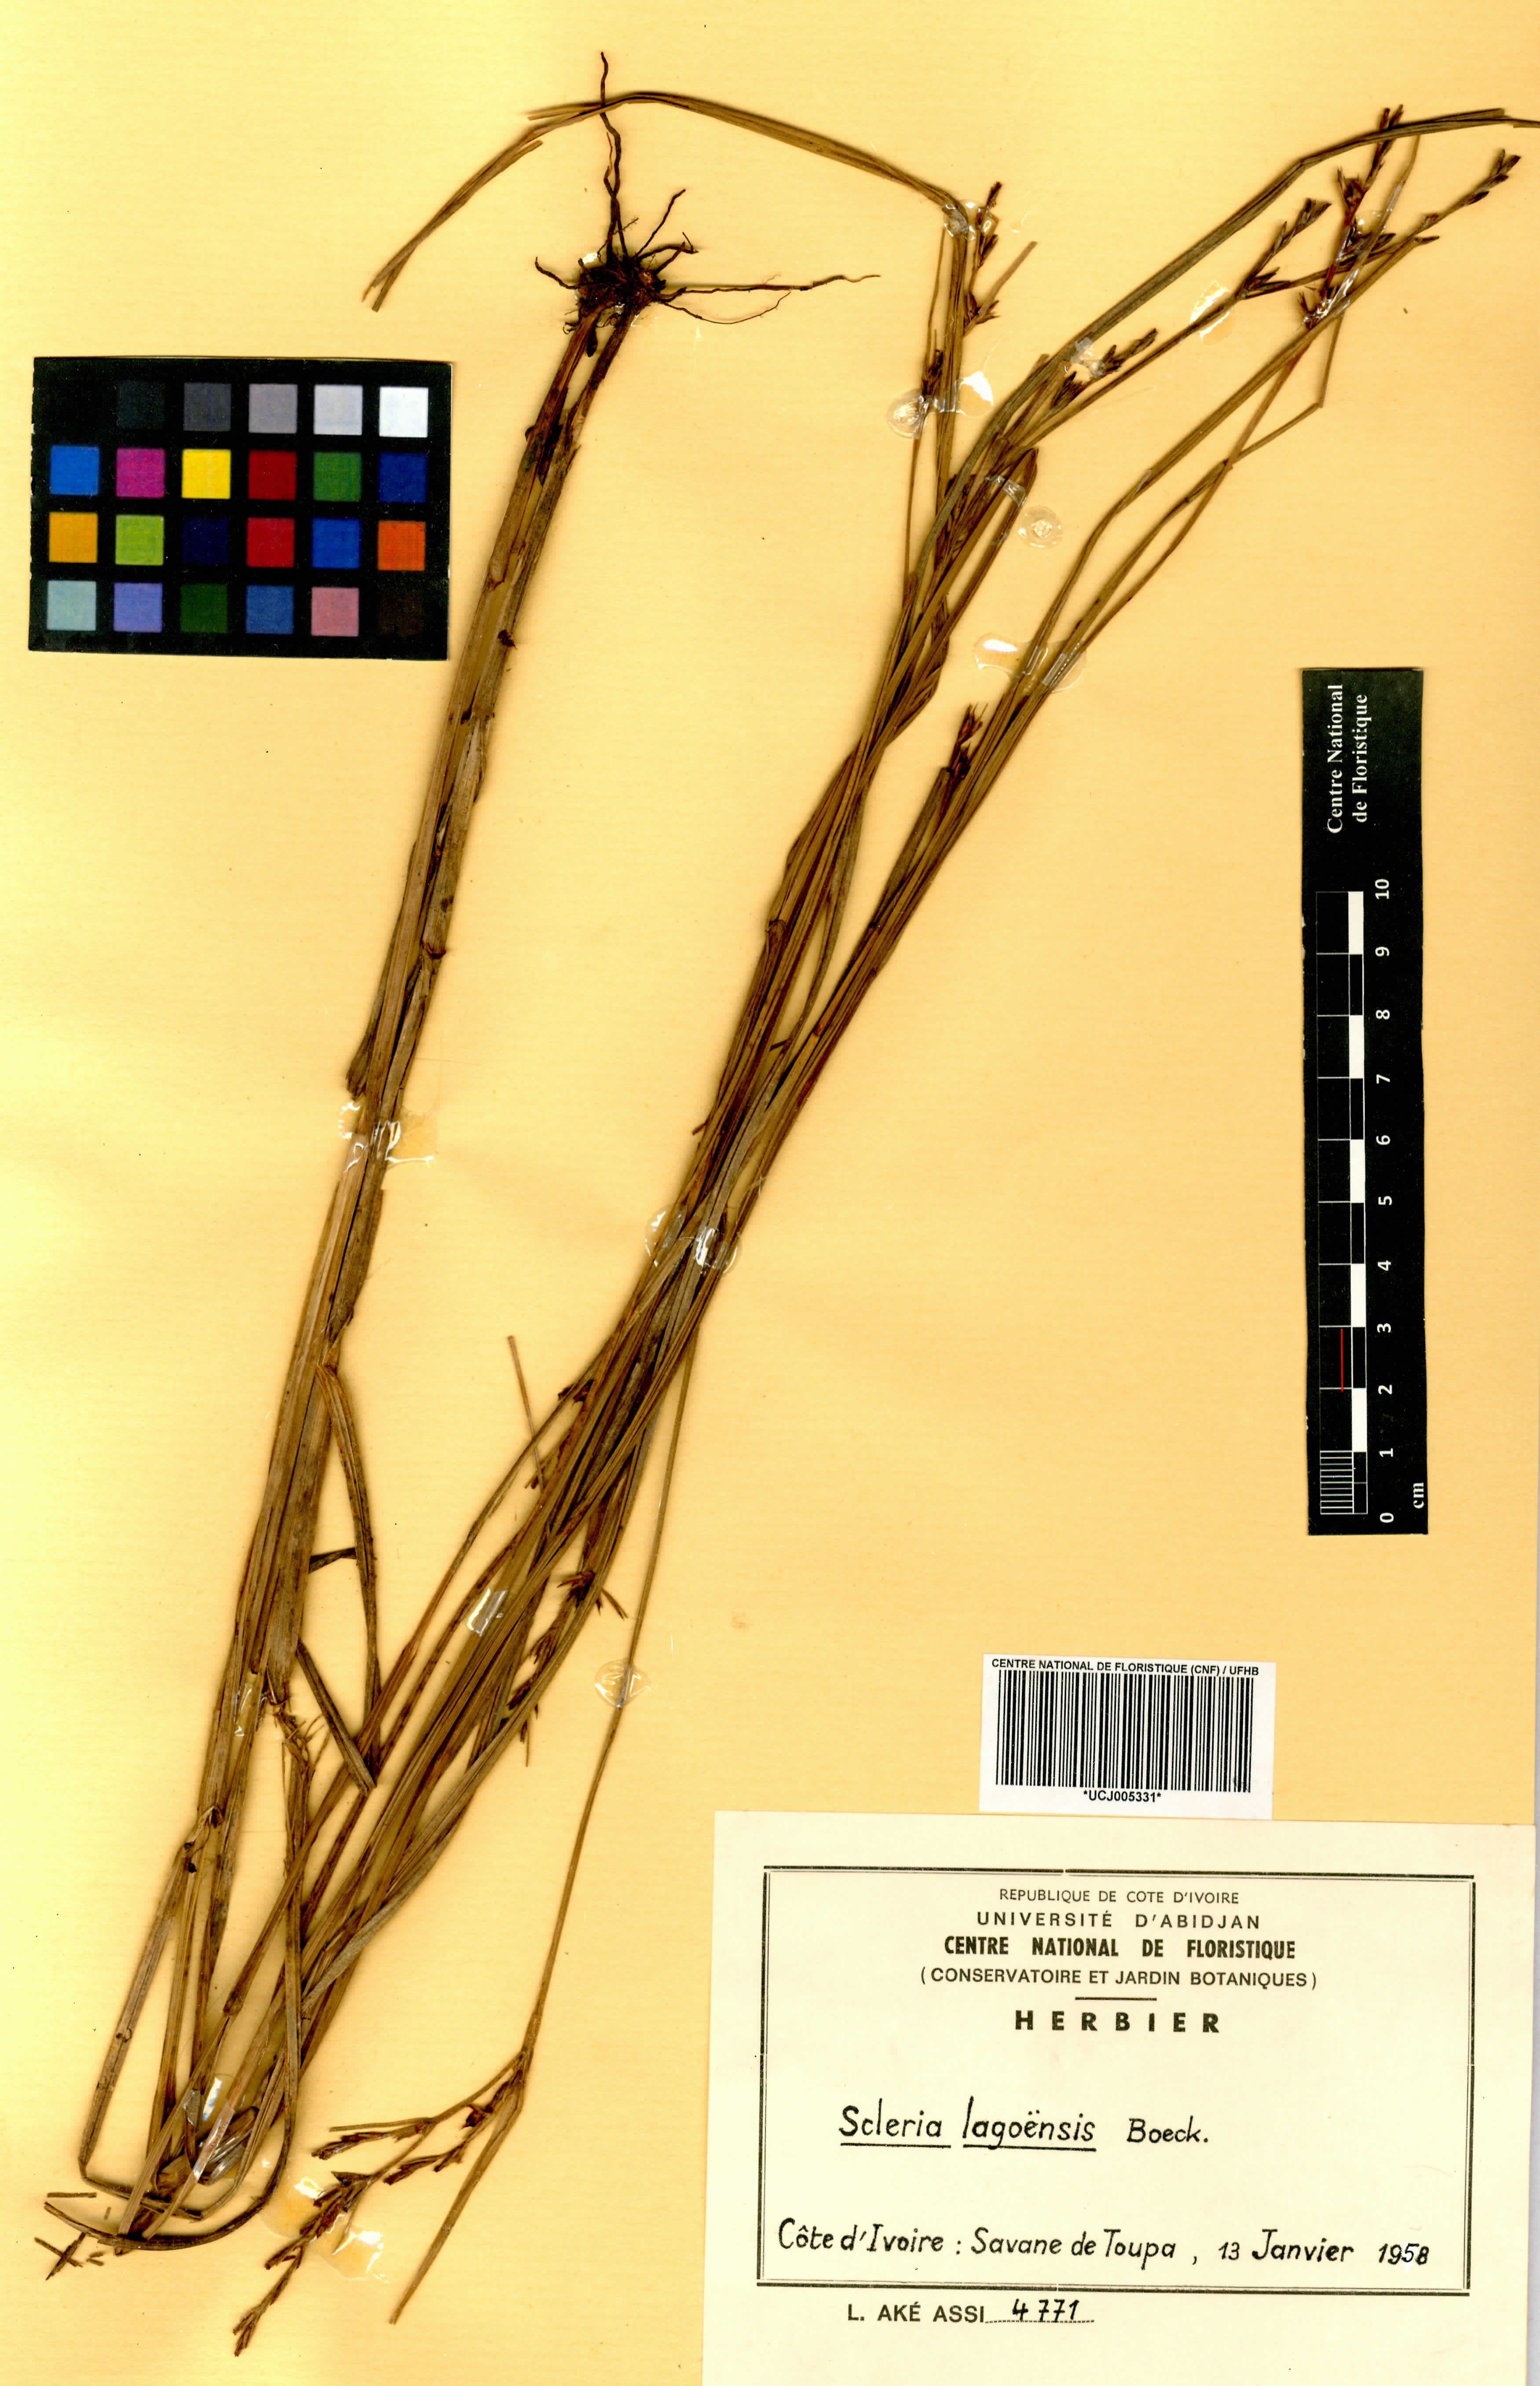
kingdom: Plantae
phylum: Tracheophyta
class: Liliopsida
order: Poales
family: Cyperaceae
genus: Scleria
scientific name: Scleria lagoensis
